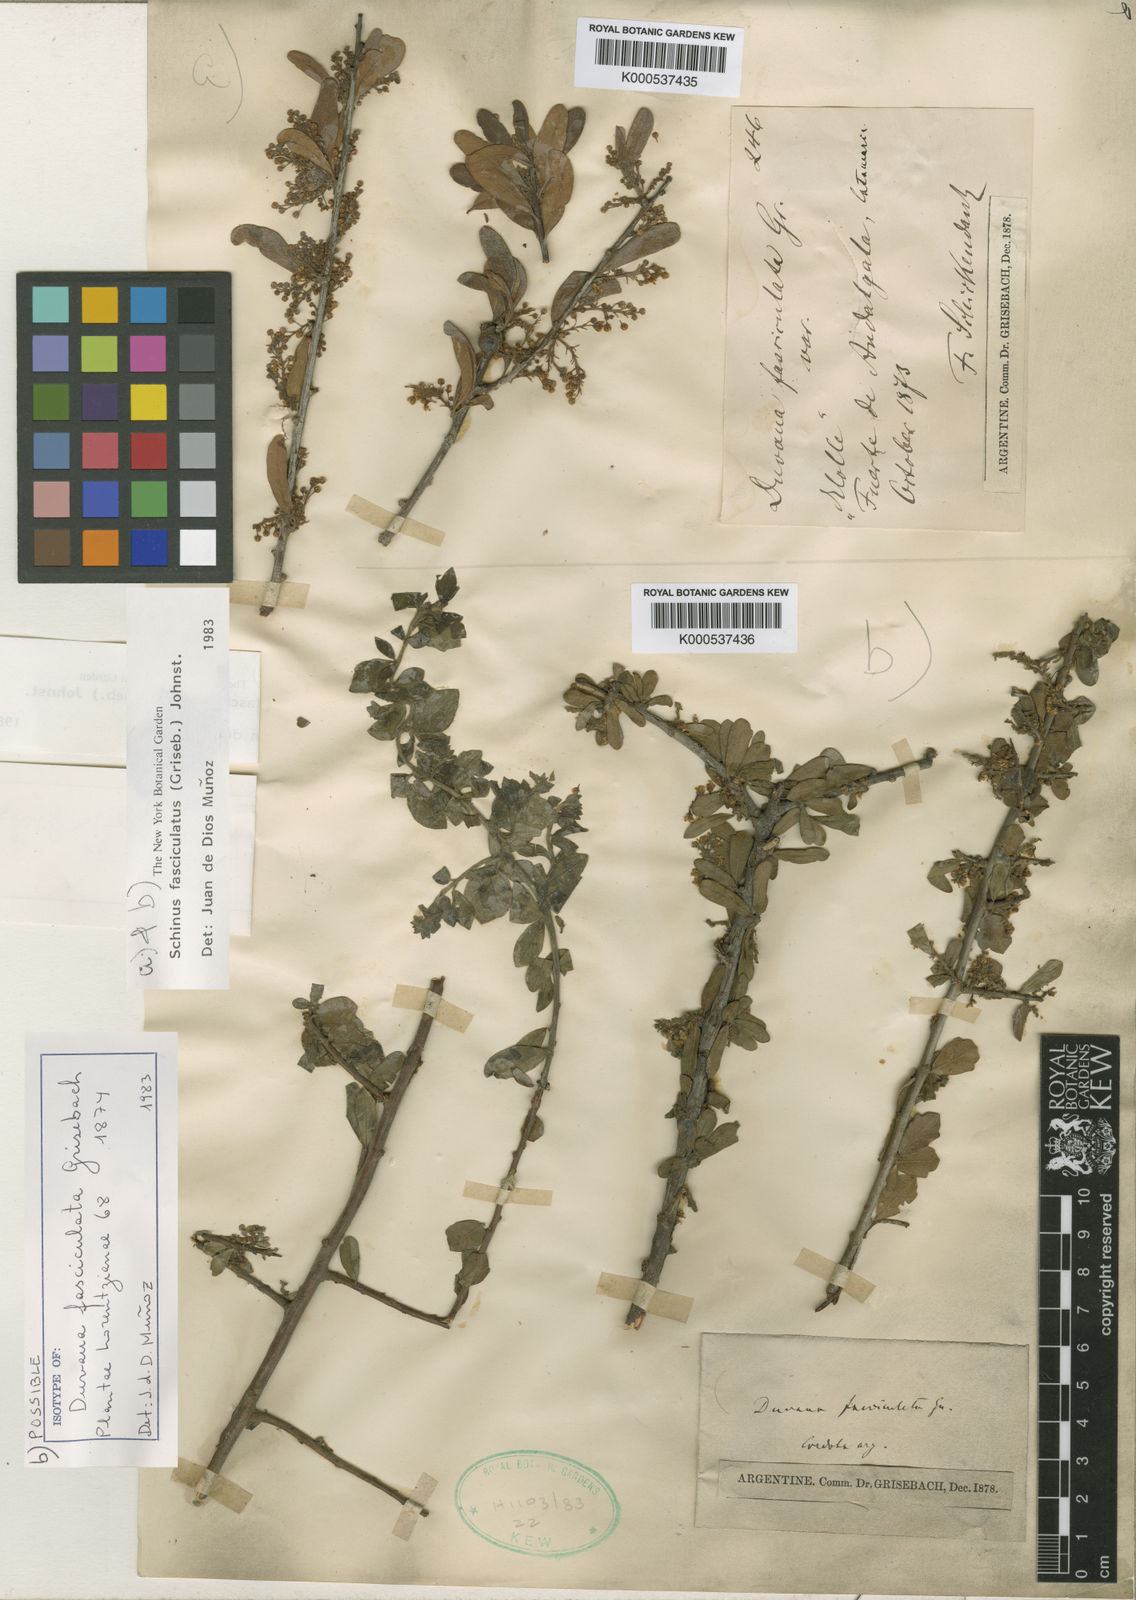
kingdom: Plantae
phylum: Tracheophyta
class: Magnoliopsida
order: Sapindales
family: Anacardiaceae
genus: Schinus
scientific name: Schinus polygama
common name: Hardee peppertree
